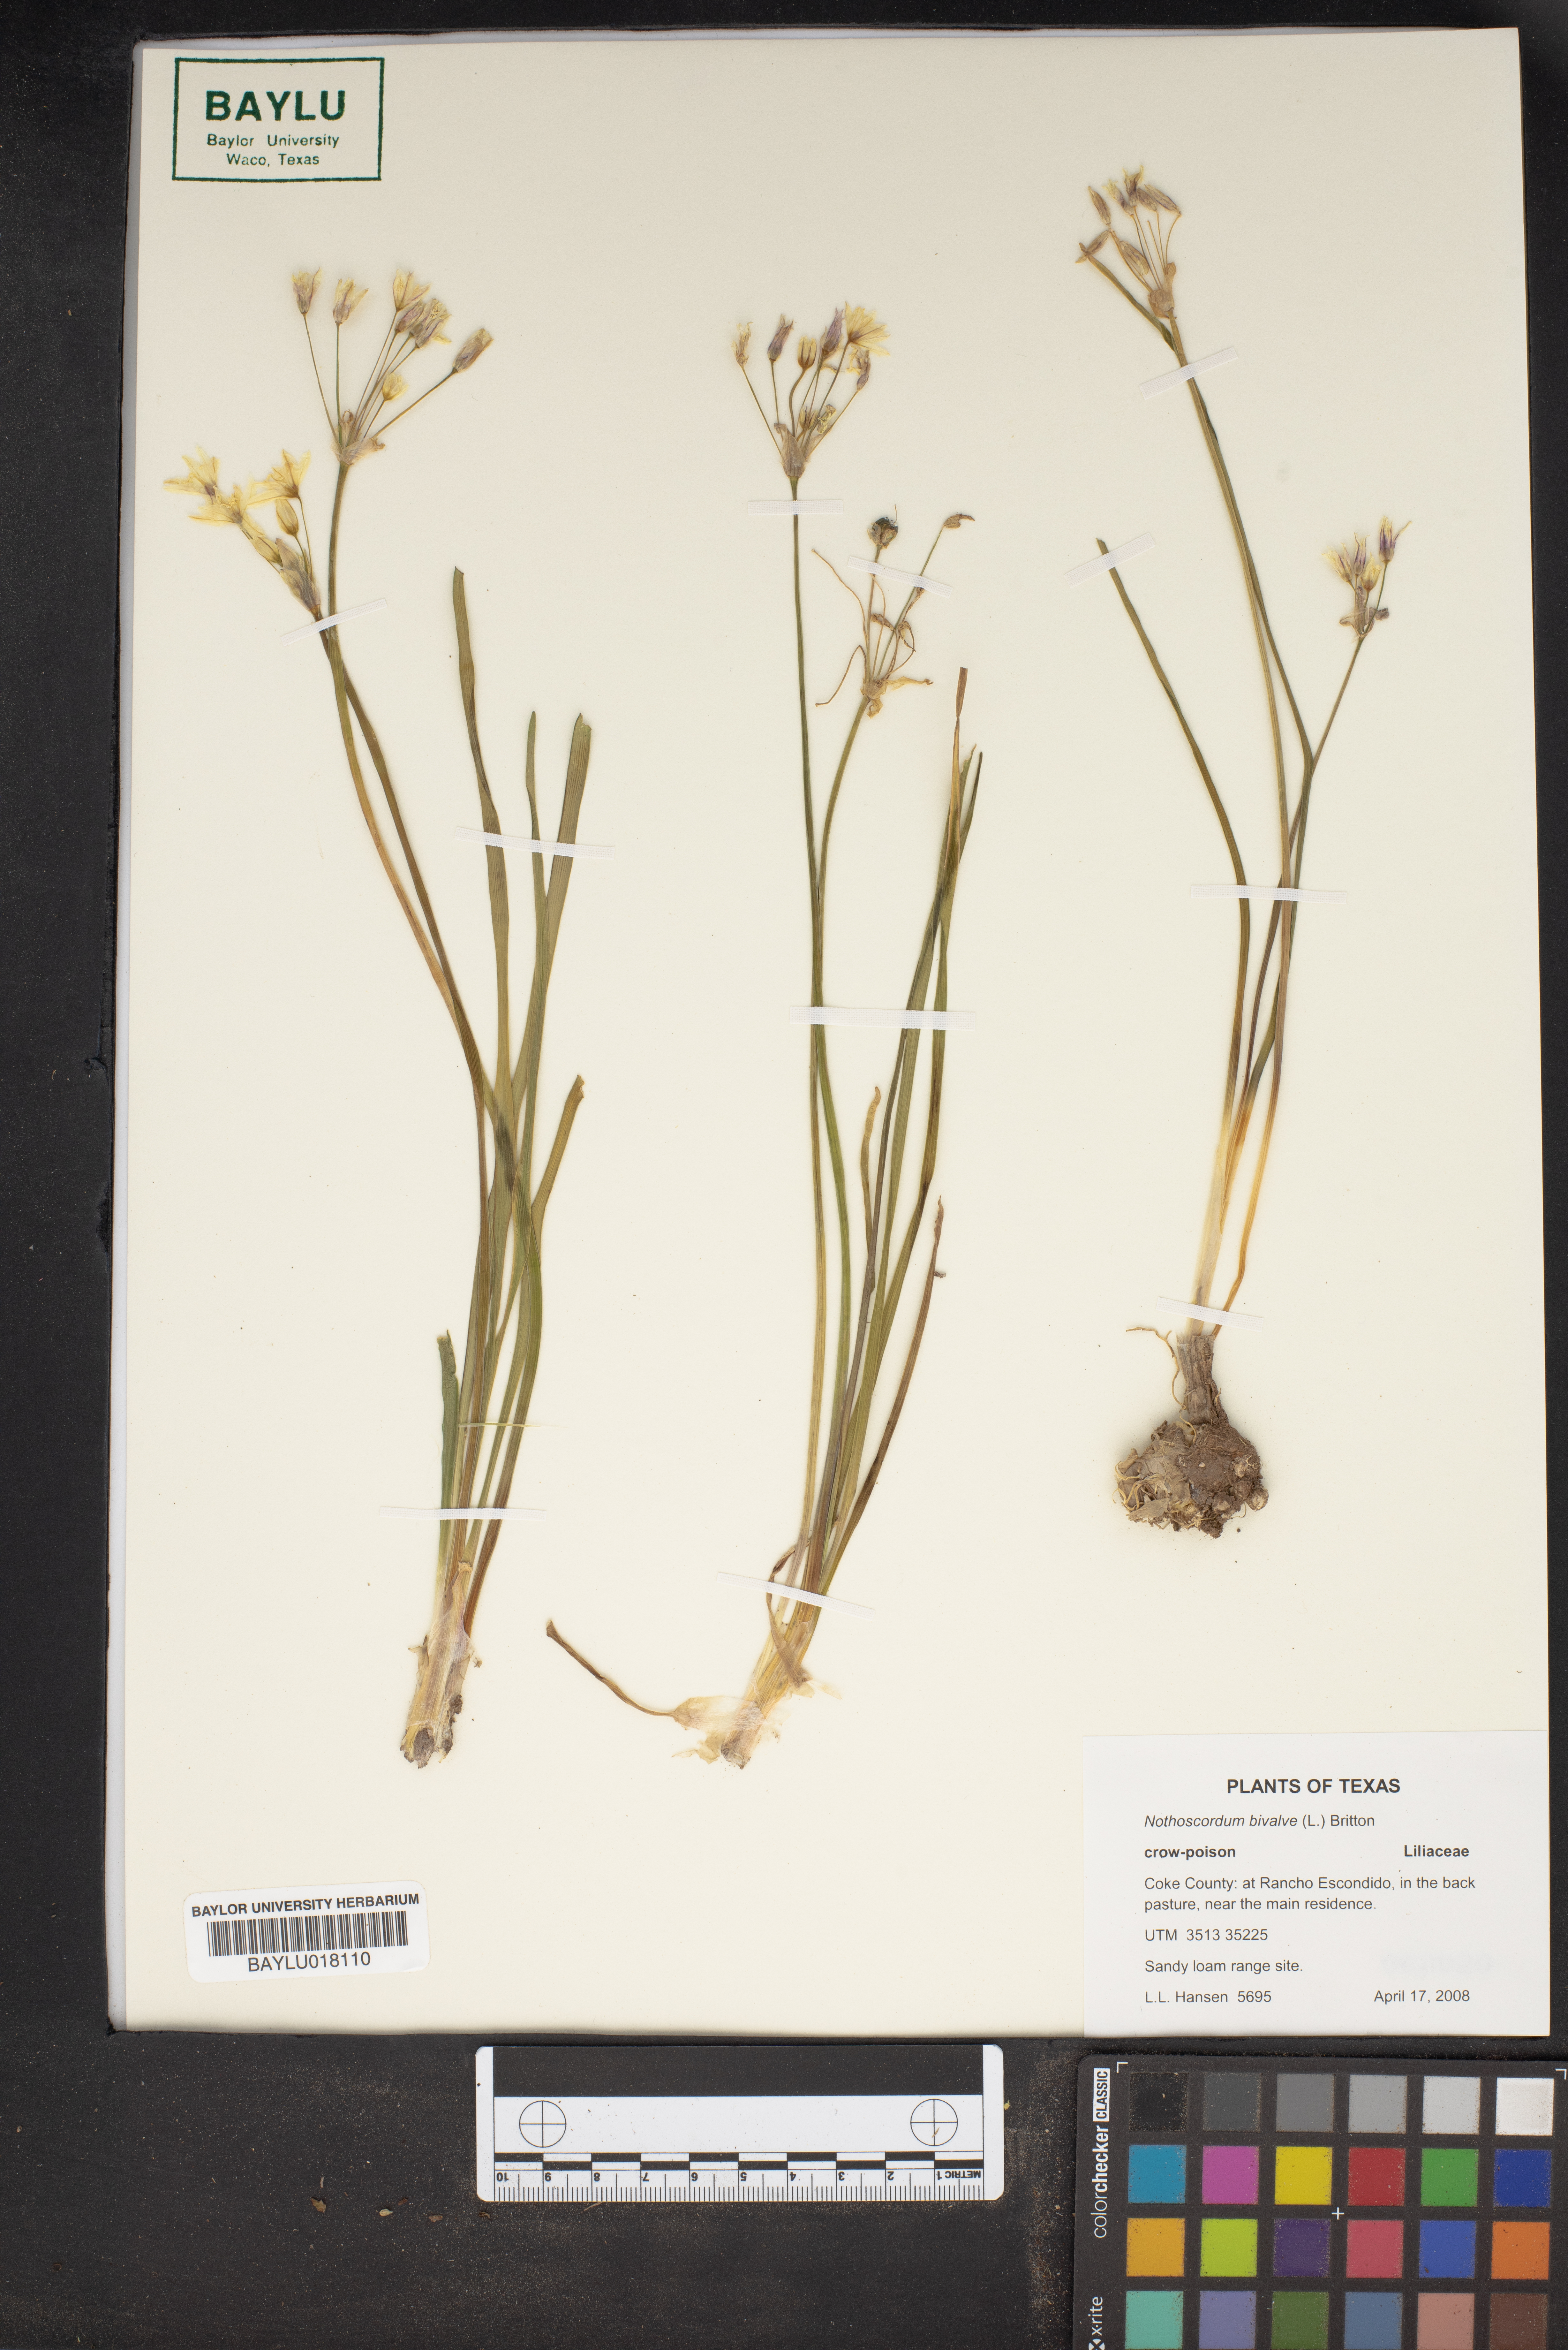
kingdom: Plantae
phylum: Tracheophyta
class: Liliopsida
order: Asparagales
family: Amaryllidaceae
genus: Nothoscordum
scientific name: Nothoscordum bivalve
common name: Crow-poison
